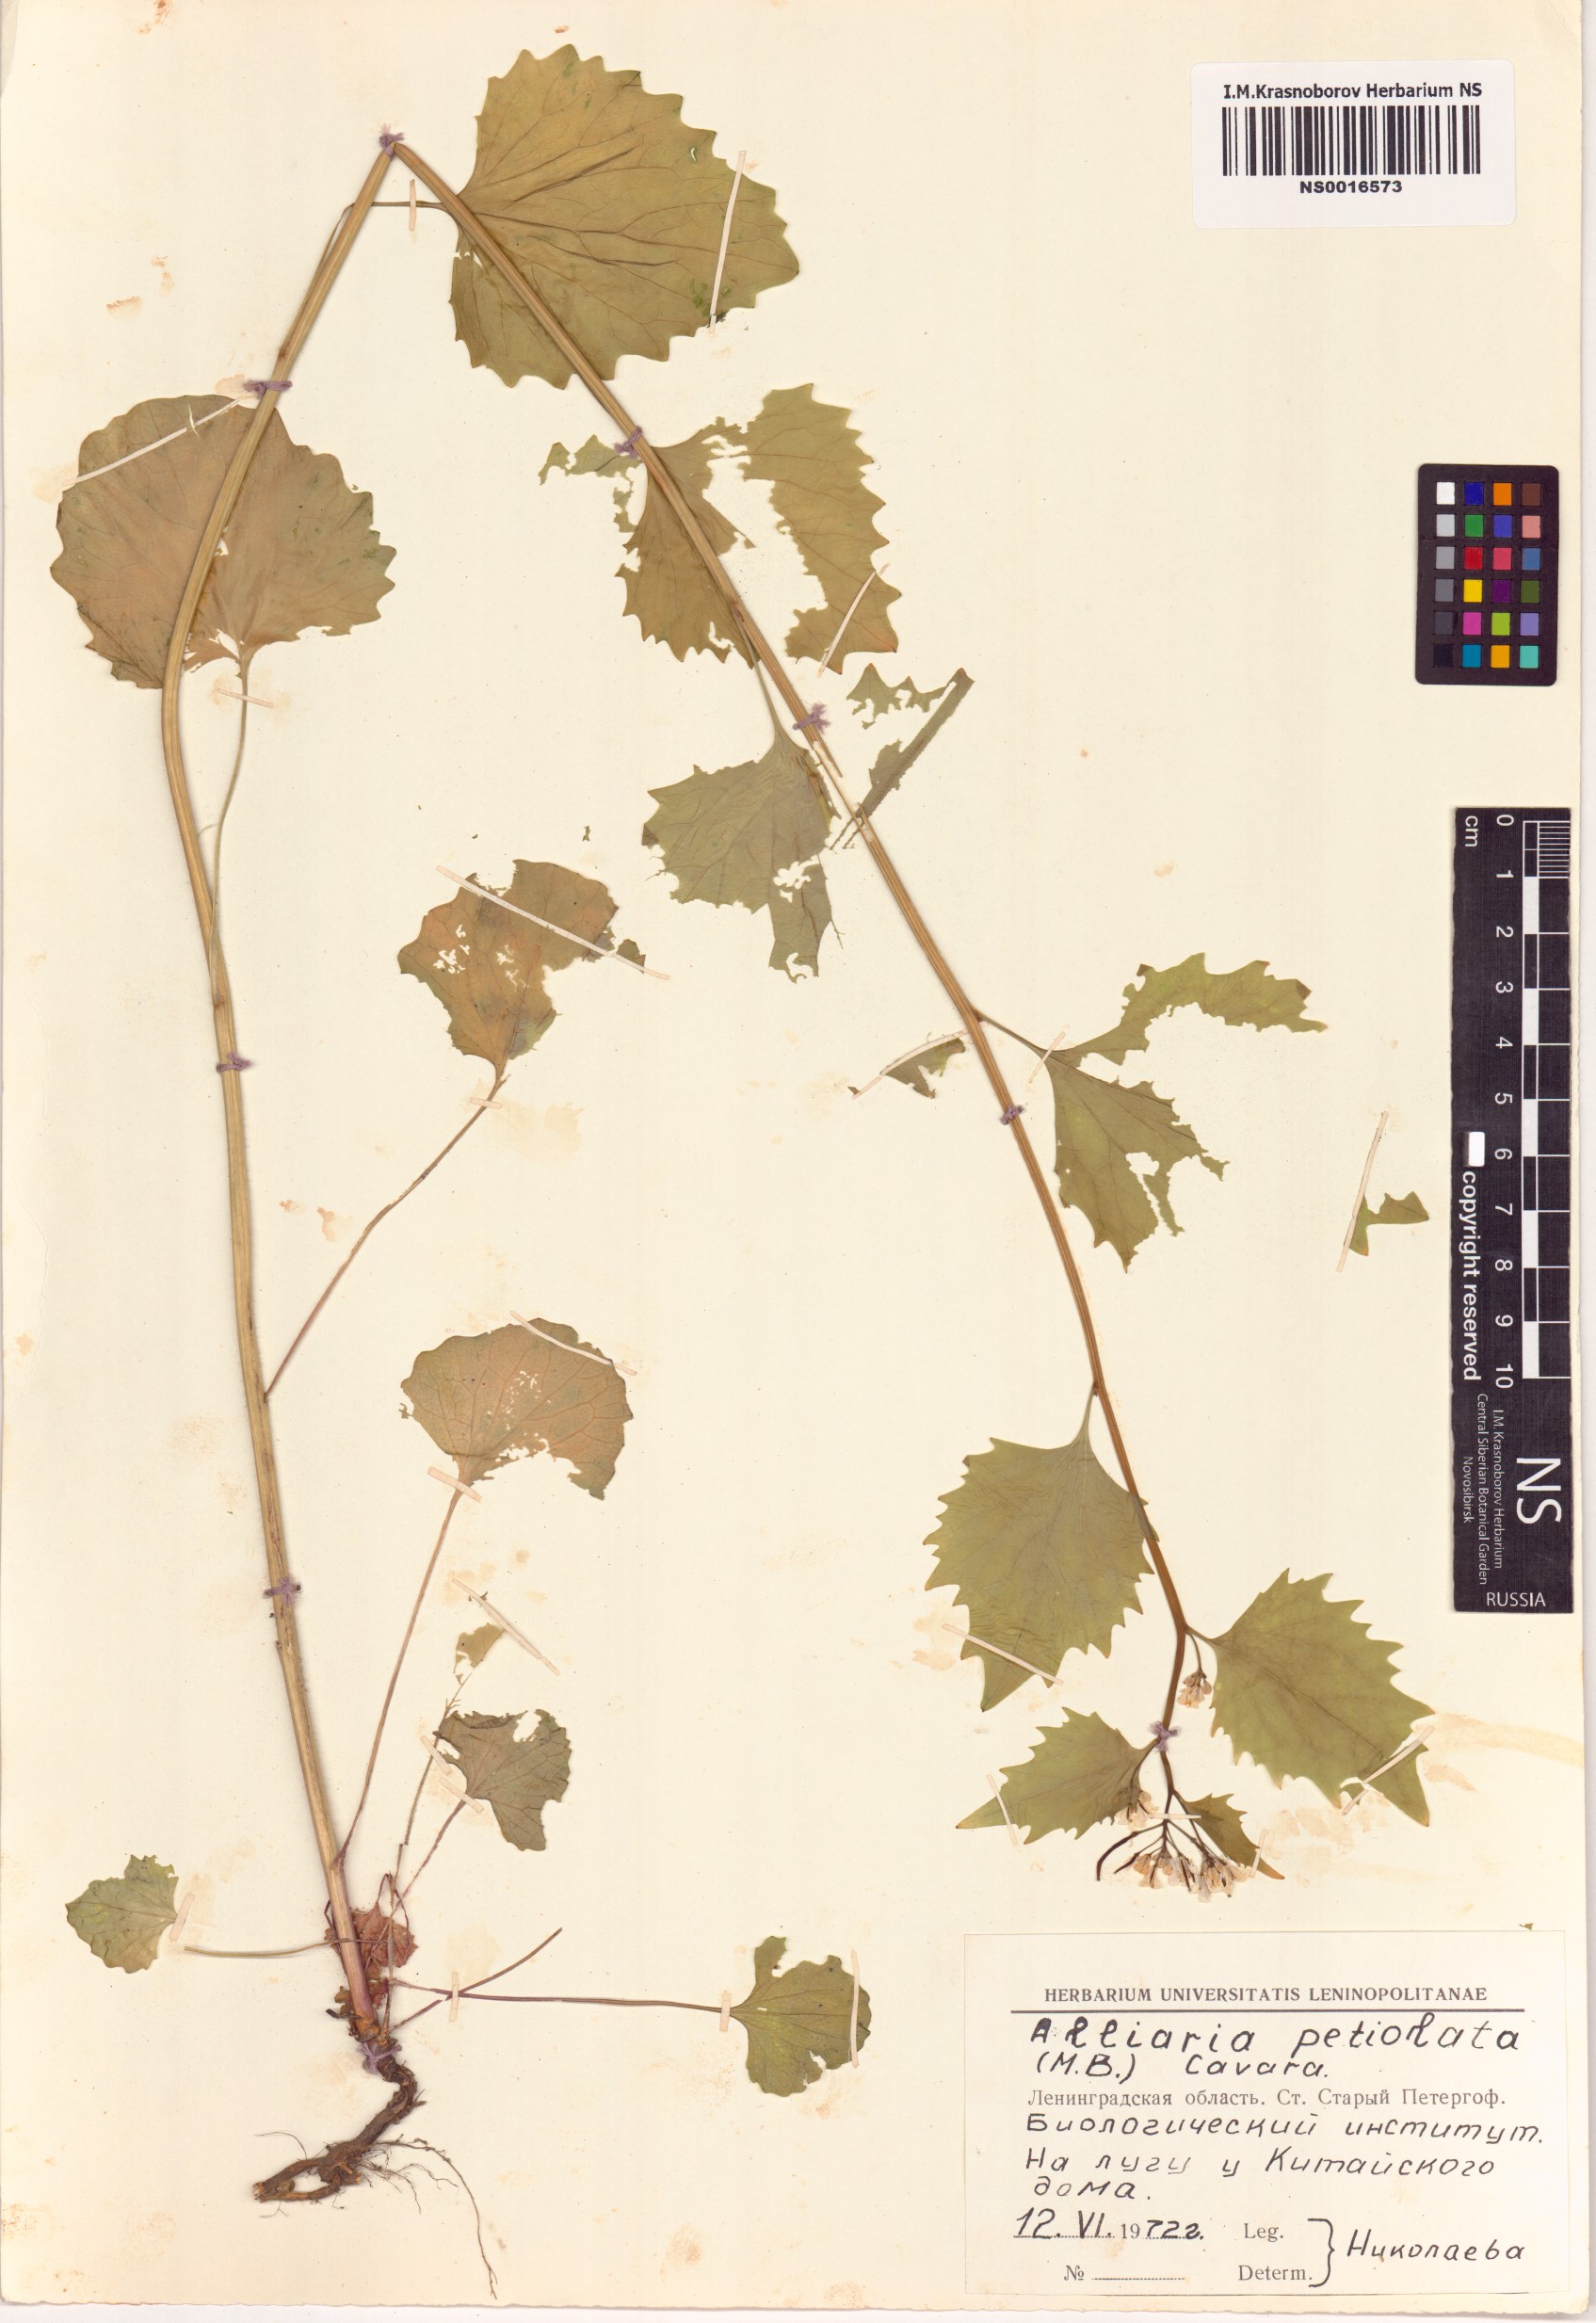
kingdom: Plantae
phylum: Tracheophyta
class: Magnoliopsida
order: Brassicales
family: Brassicaceae
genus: Alliaria
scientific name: Alliaria petiolata
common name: Garlic mustard
